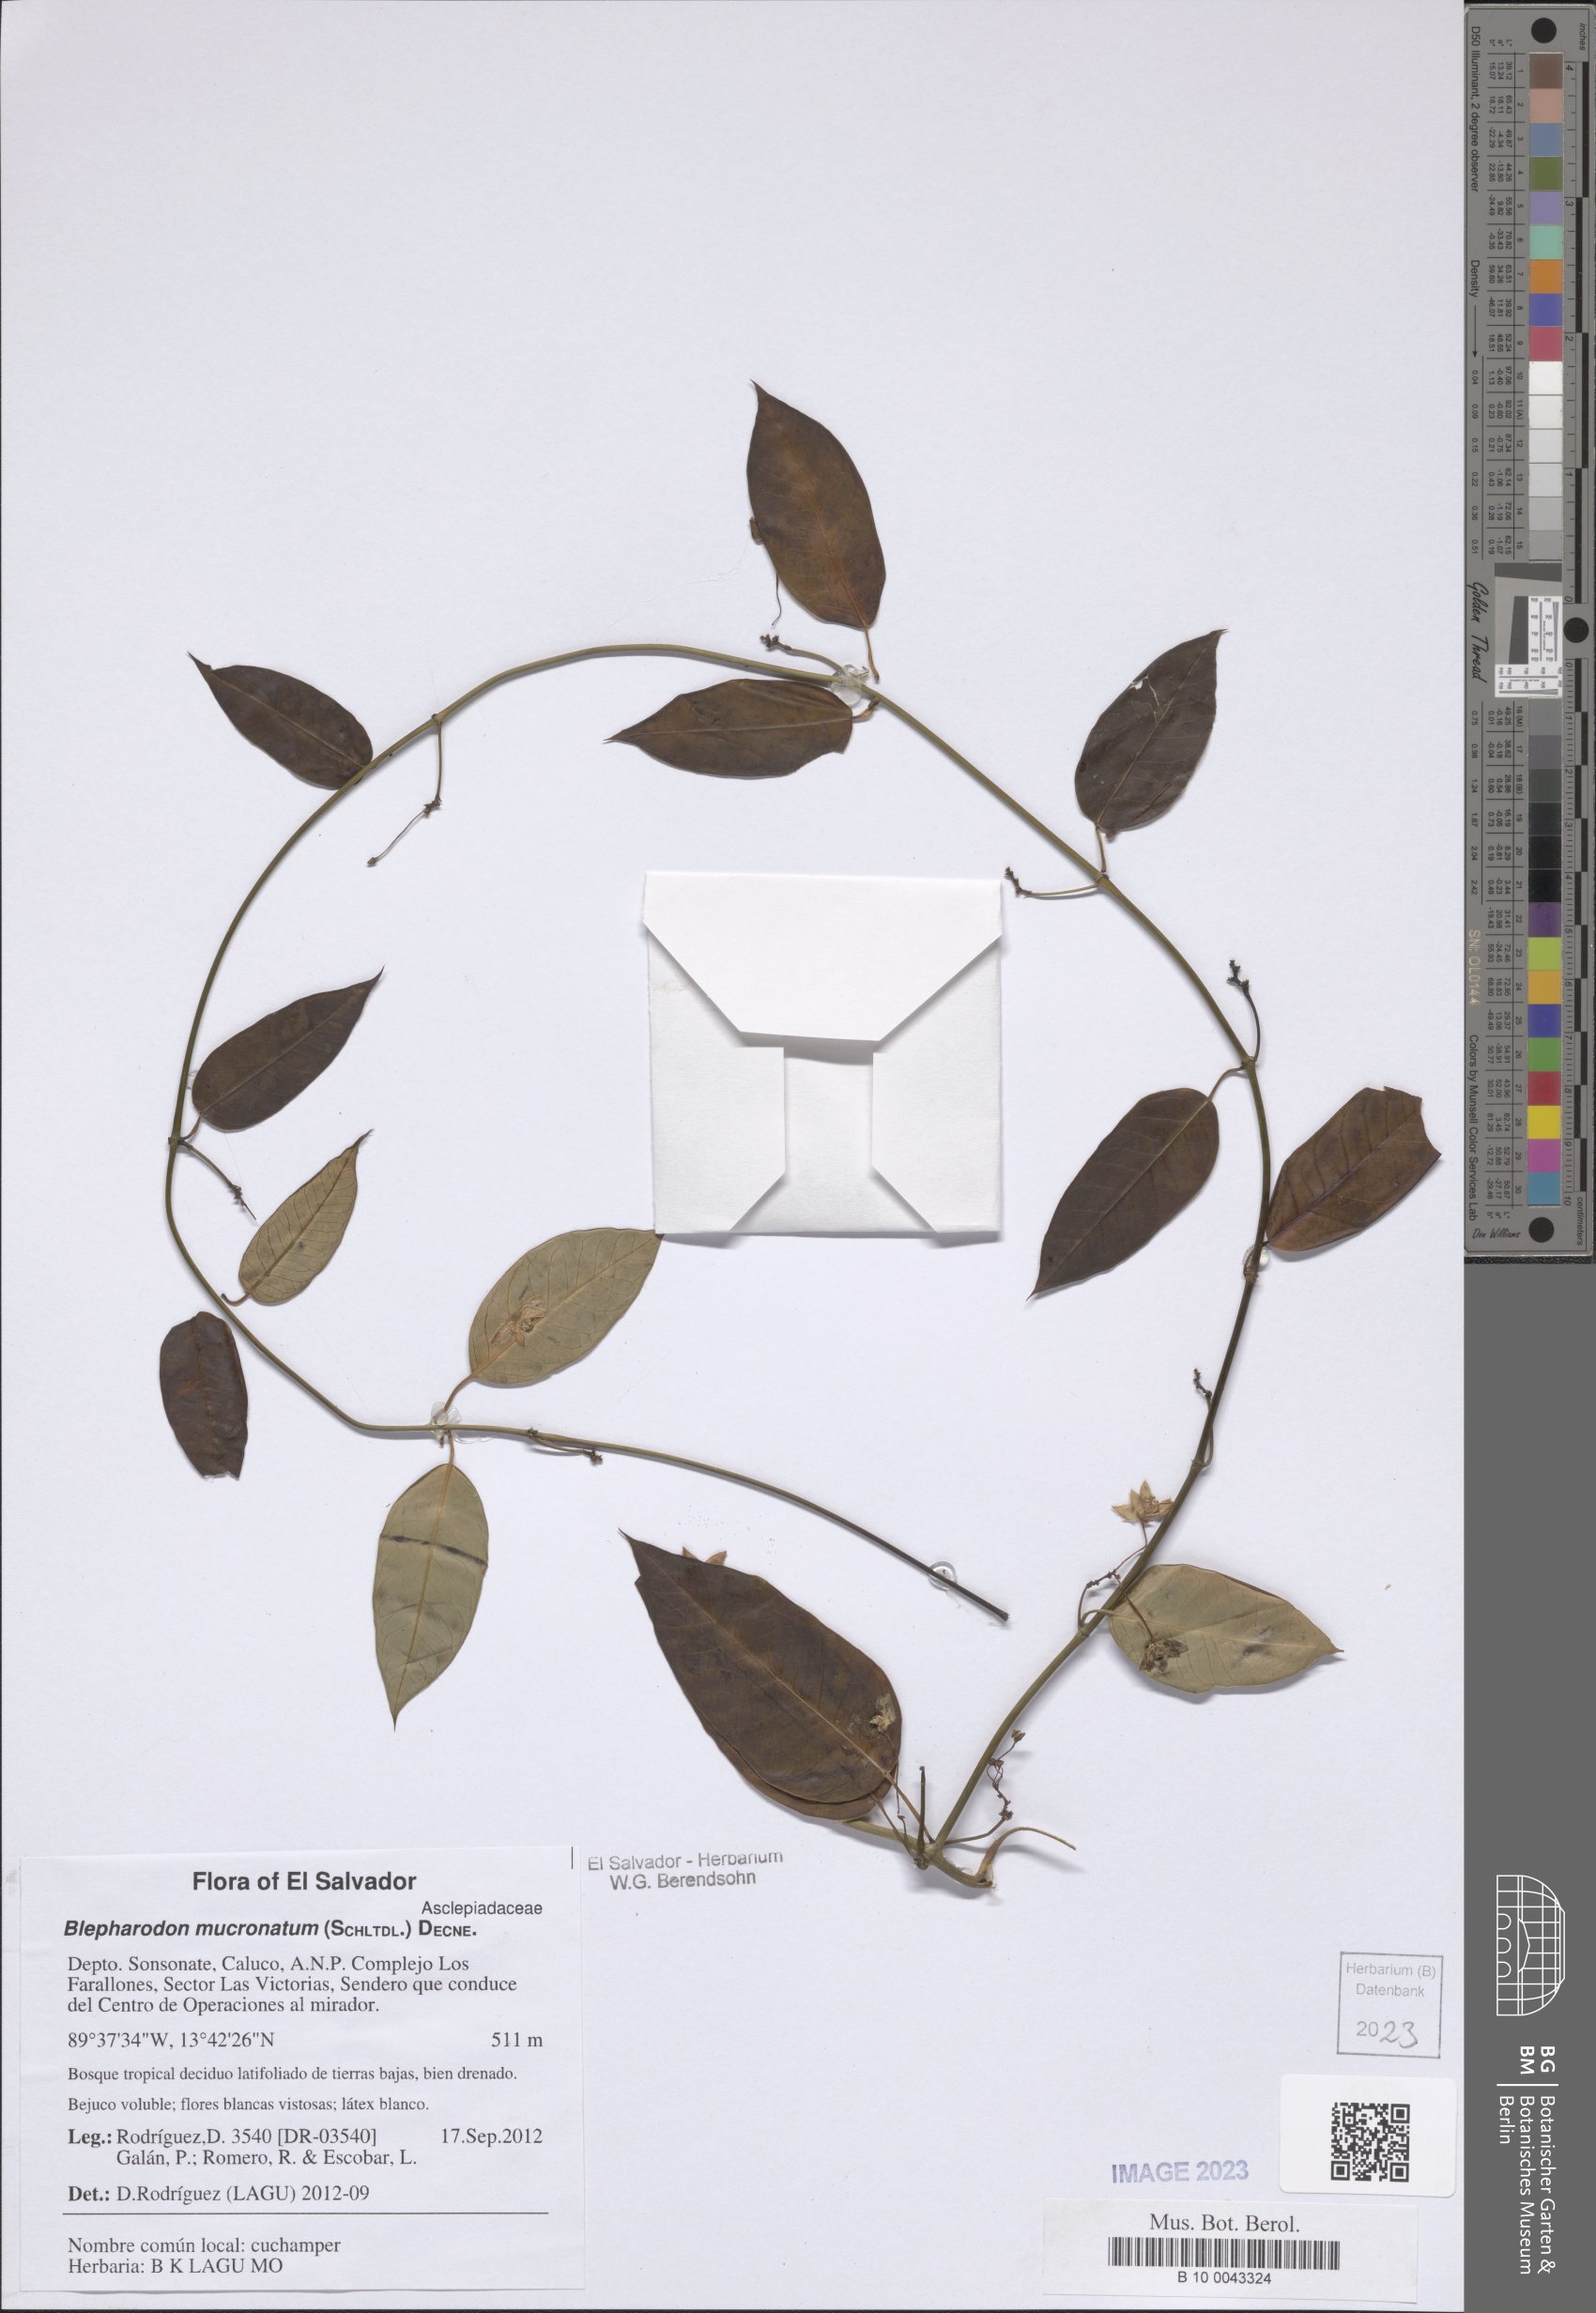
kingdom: Plantae
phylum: Tracheophyta
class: Magnoliopsida
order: Gentianales
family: Apocynaceae
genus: Vailia
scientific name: Vailia anomala
